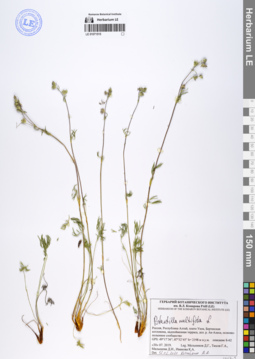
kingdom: Plantae
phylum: Tracheophyta
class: Magnoliopsida
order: Rosales
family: Rosaceae
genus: Potentilla
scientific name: Potentilla multifida
